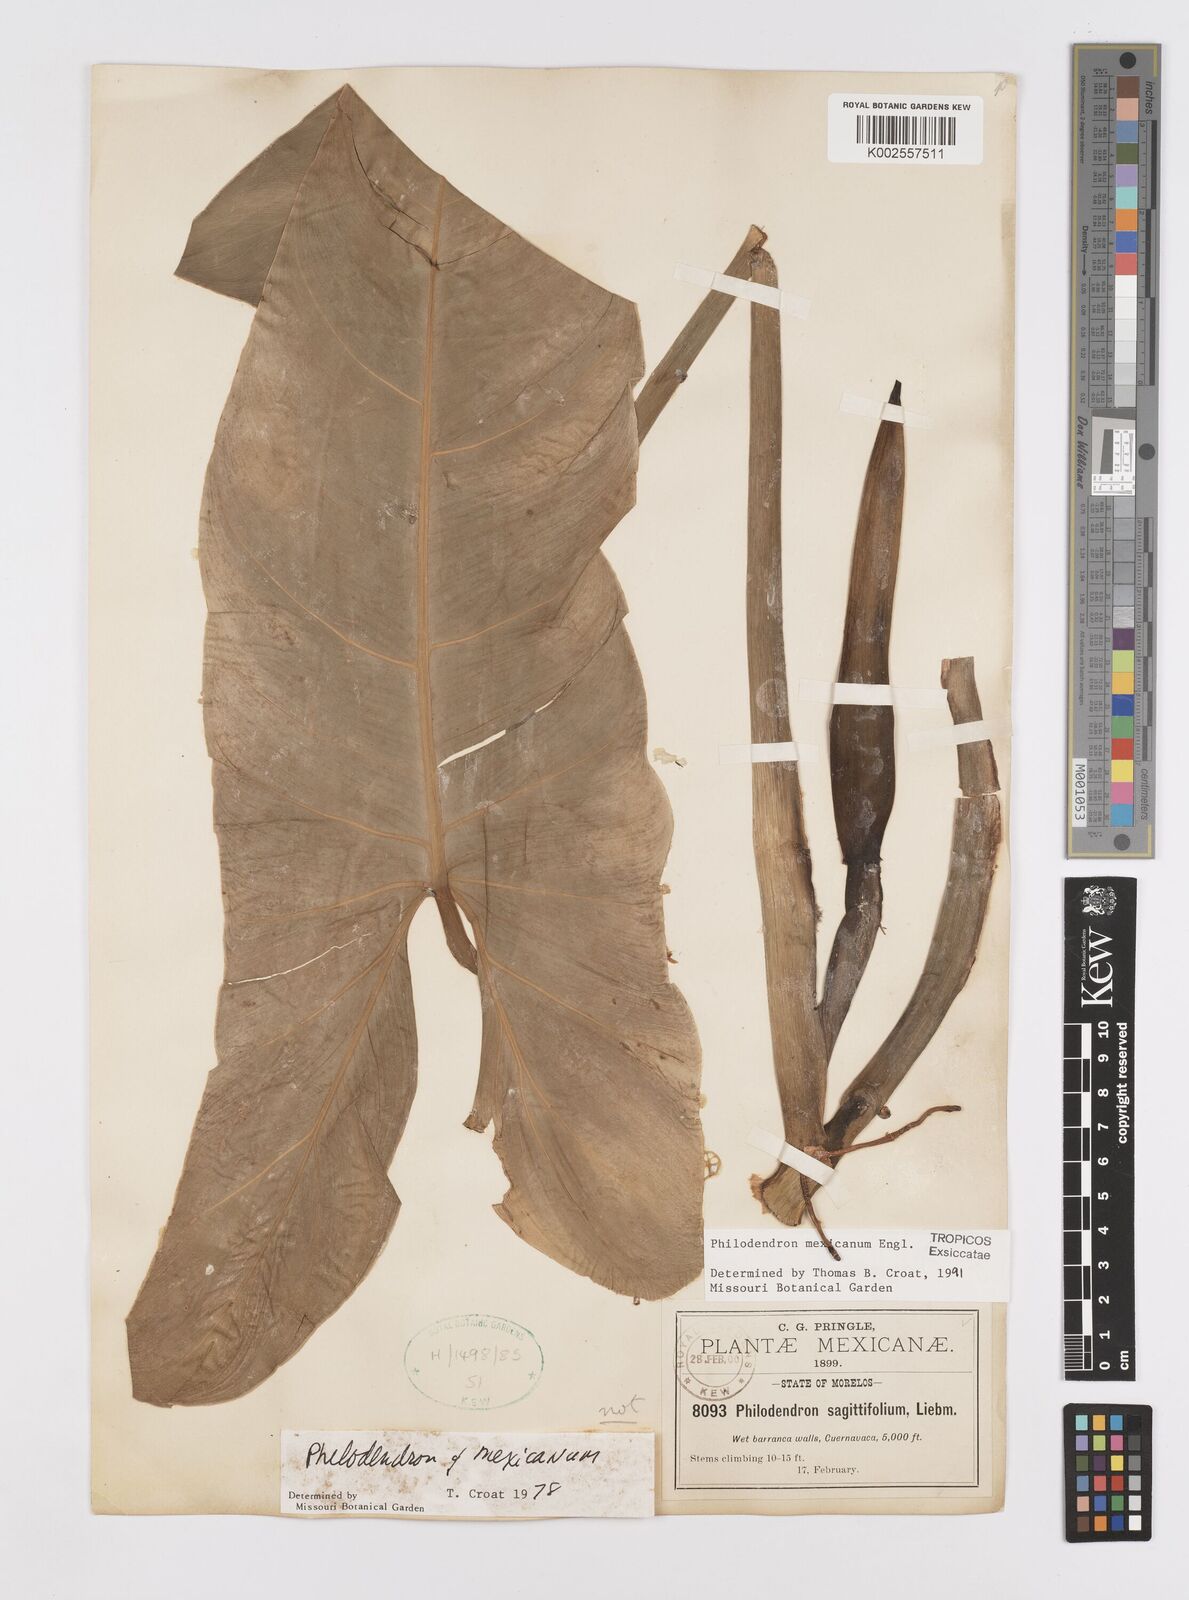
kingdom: Plantae
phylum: Tracheophyta
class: Liliopsida
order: Alismatales
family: Araceae
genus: Philodendron
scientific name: Philodendron mexicanum
